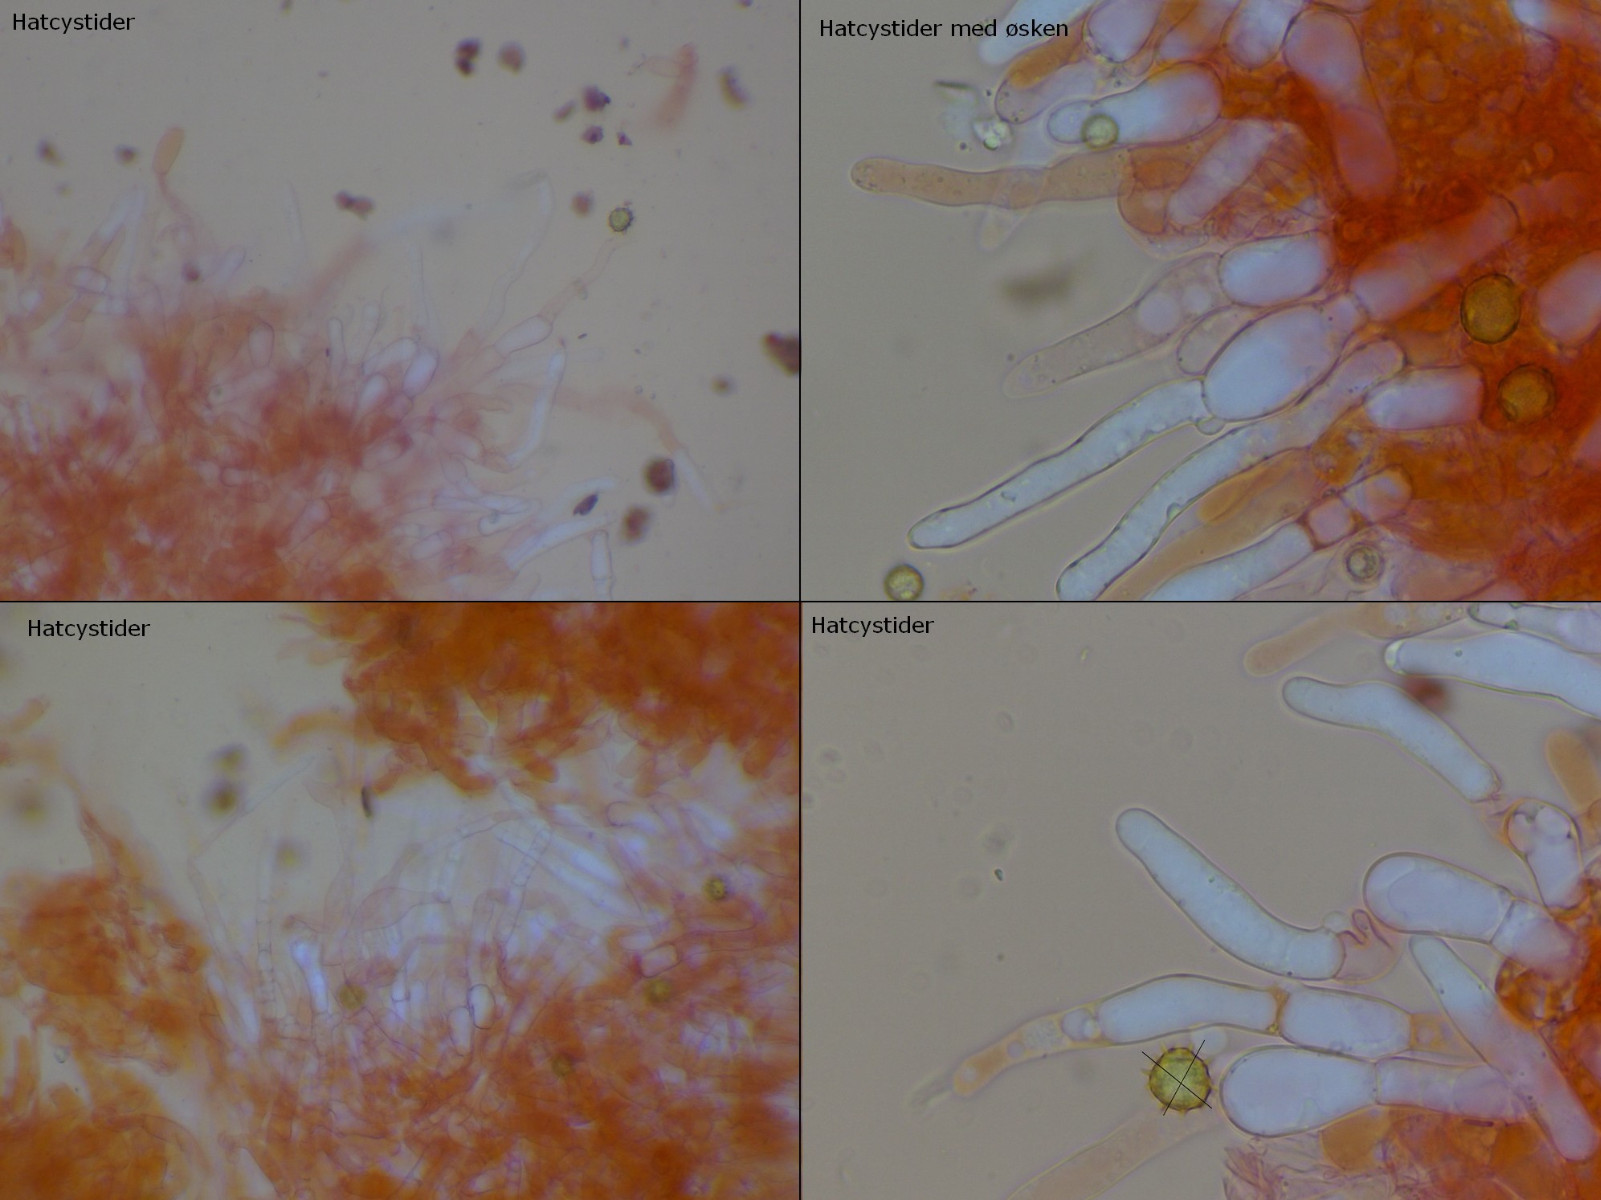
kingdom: Fungi
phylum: Basidiomycota
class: Agaricomycetes
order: Agaricales
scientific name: Agaricales
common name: champignonordenen
